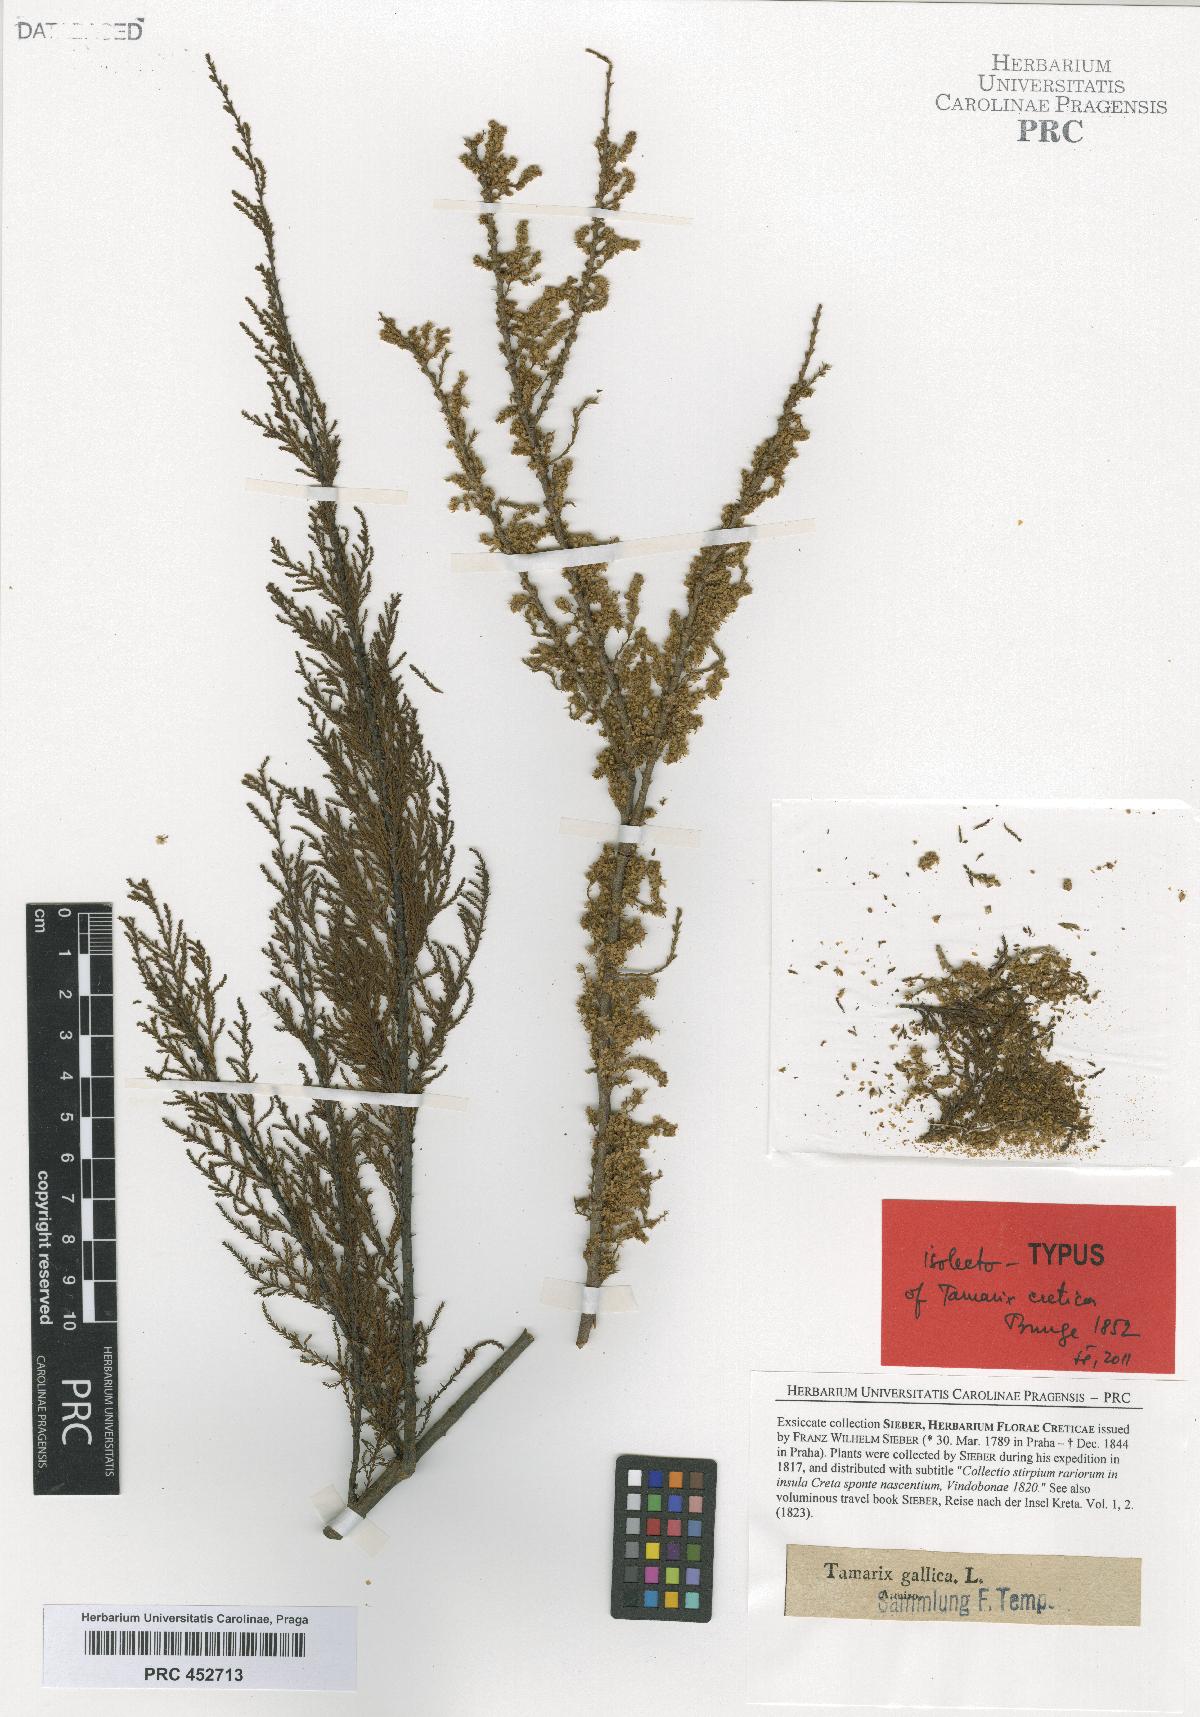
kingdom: Plantae
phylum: Tracheophyta
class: Magnoliopsida
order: Caryophyllales
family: Tamaricaceae
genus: Tamarix
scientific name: Tamarix parviflora
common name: Smallflower tamarisk
